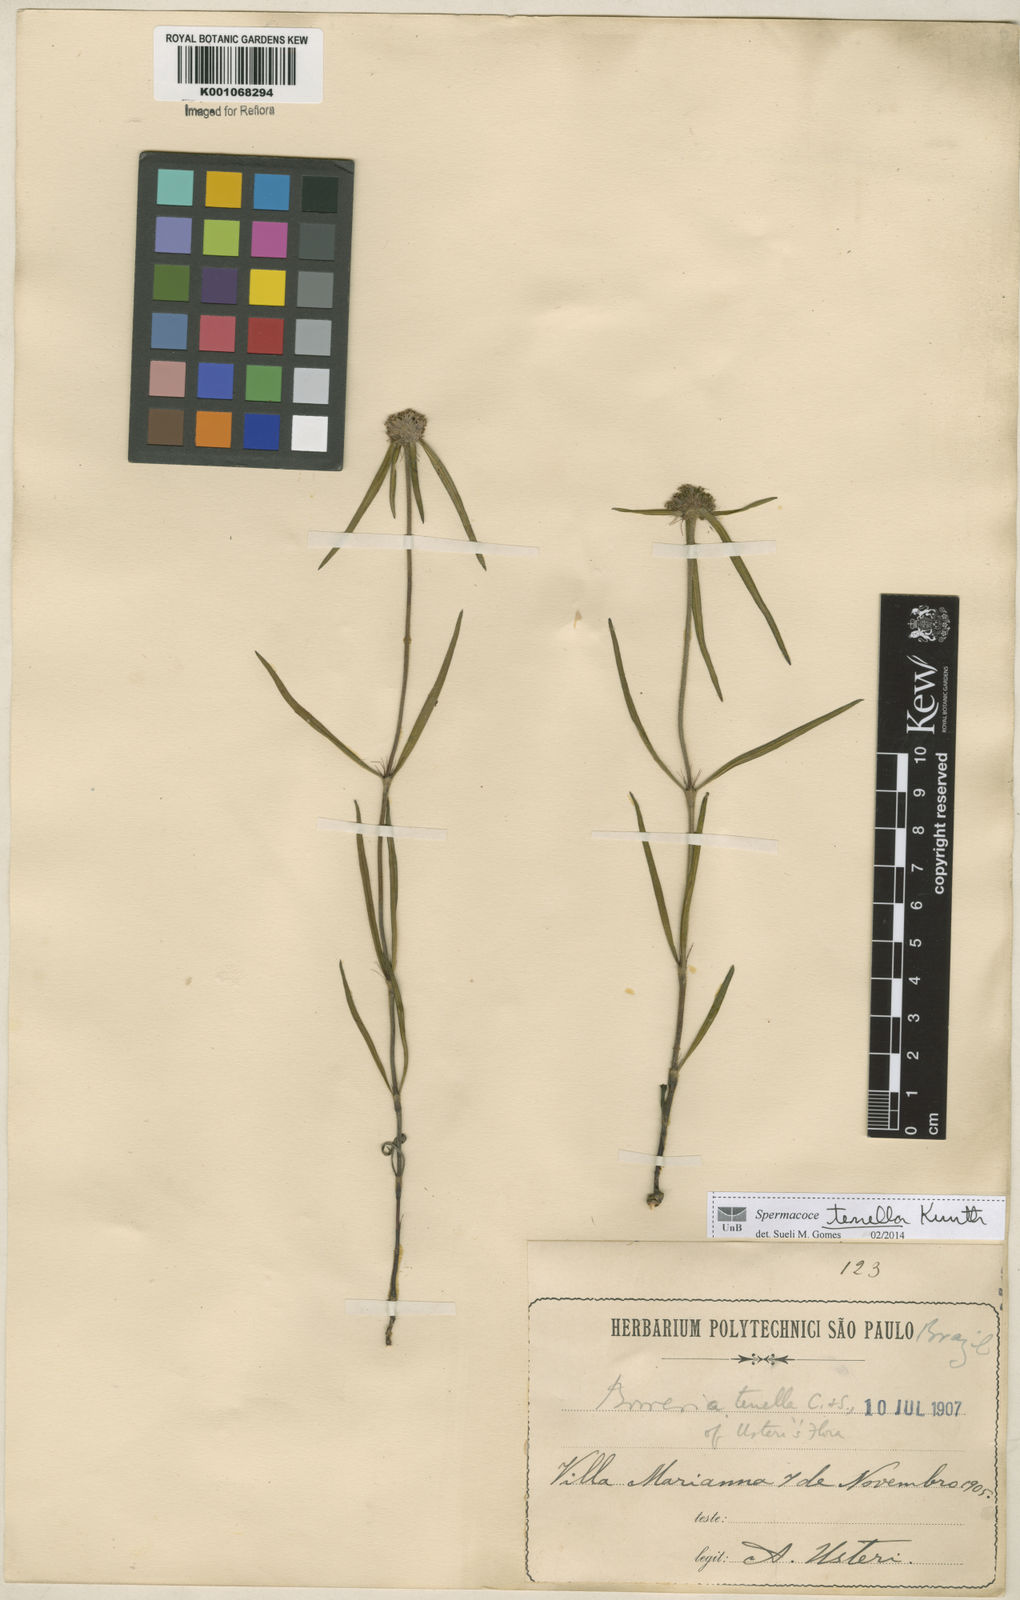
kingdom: Plantae
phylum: Tracheophyta
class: Magnoliopsida
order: Gentianales
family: Rubiaceae
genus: Spermacoce
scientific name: Spermacoce orinocensis
